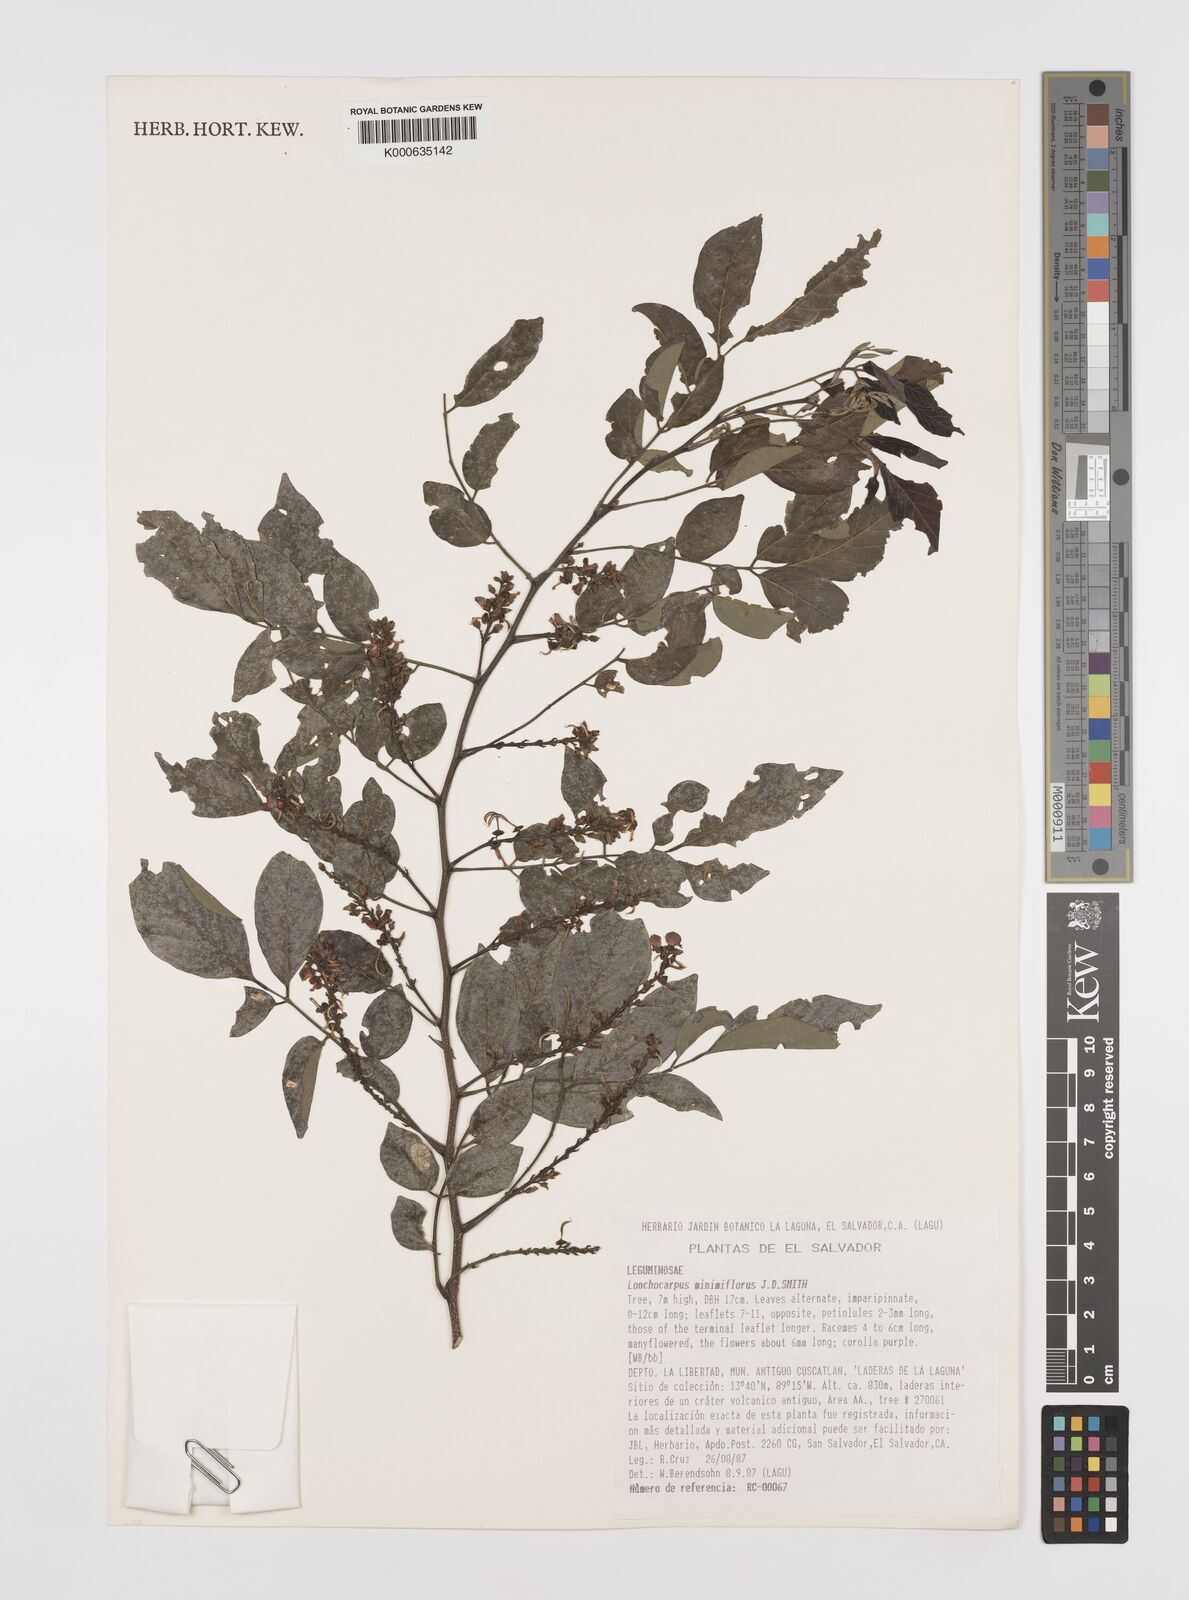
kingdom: Plantae
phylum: Tracheophyta
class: Magnoliopsida
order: Fabales
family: Fabaceae
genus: Lonchocarpus
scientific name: Lonchocarpus
